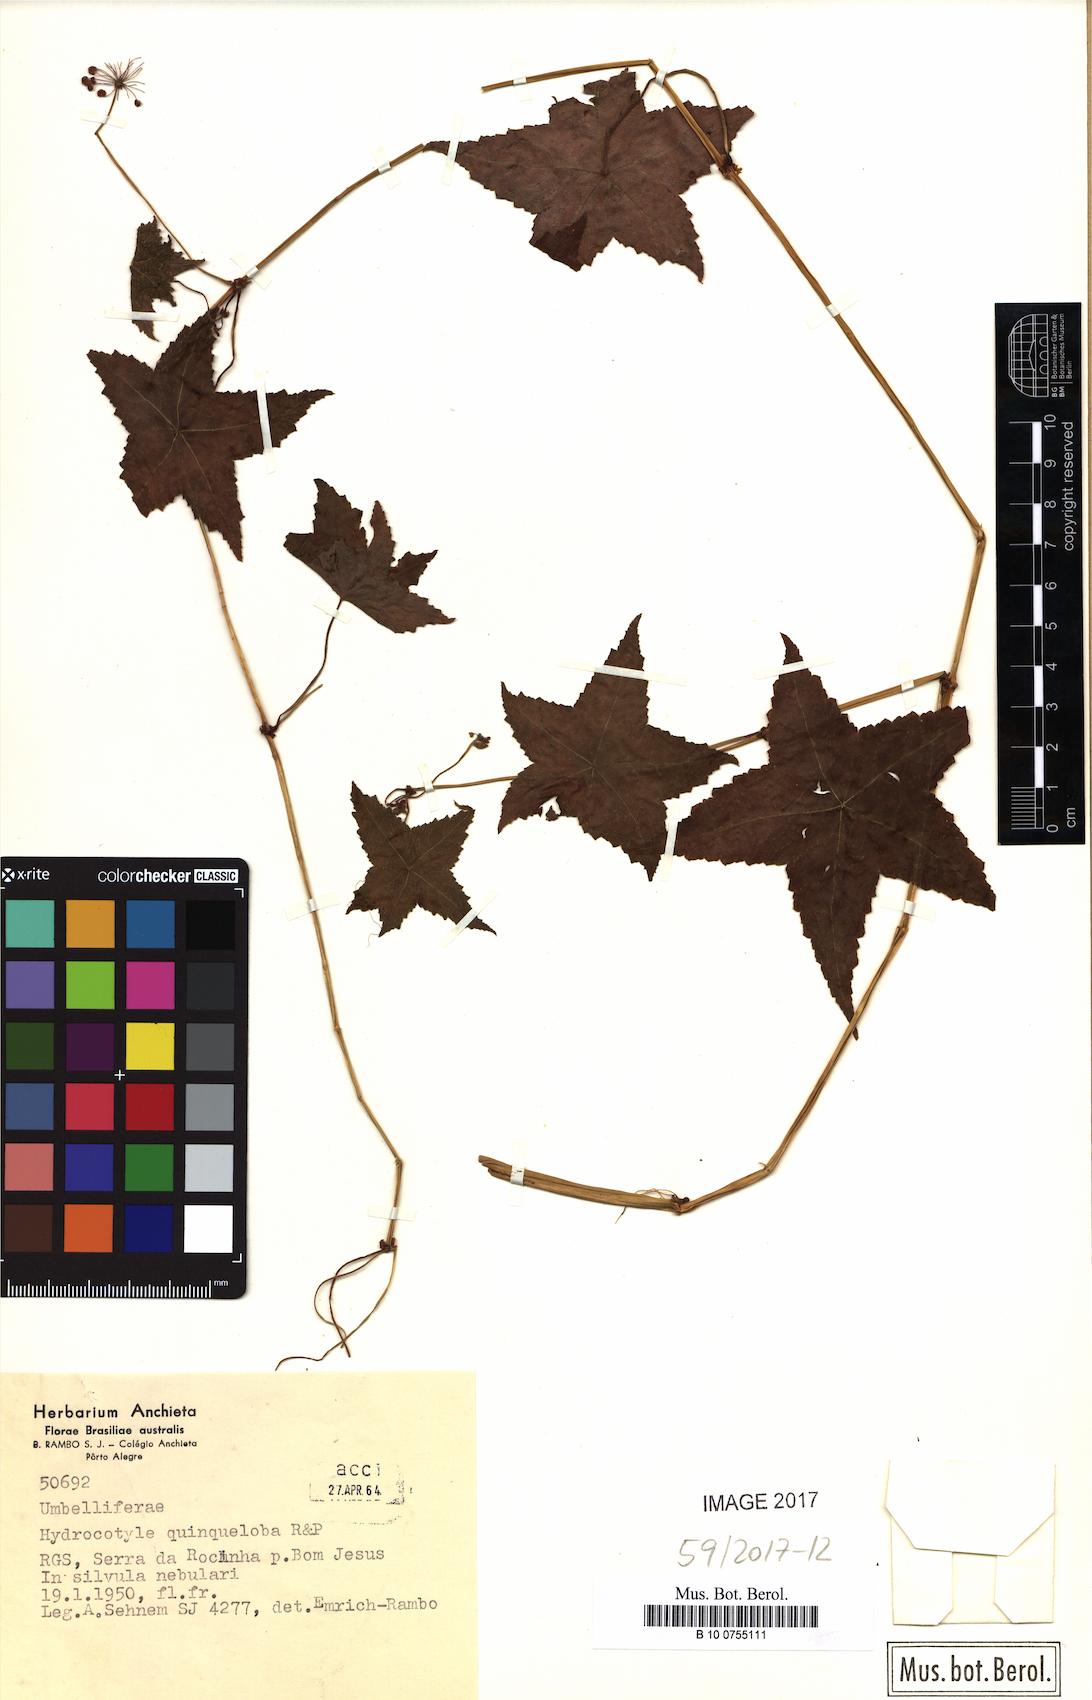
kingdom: Plantae
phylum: Tracheophyta
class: Magnoliopsida
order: Apiales
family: Araliaceae
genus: Hydrocotyle
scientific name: Hydrocotyle quinqueloba
